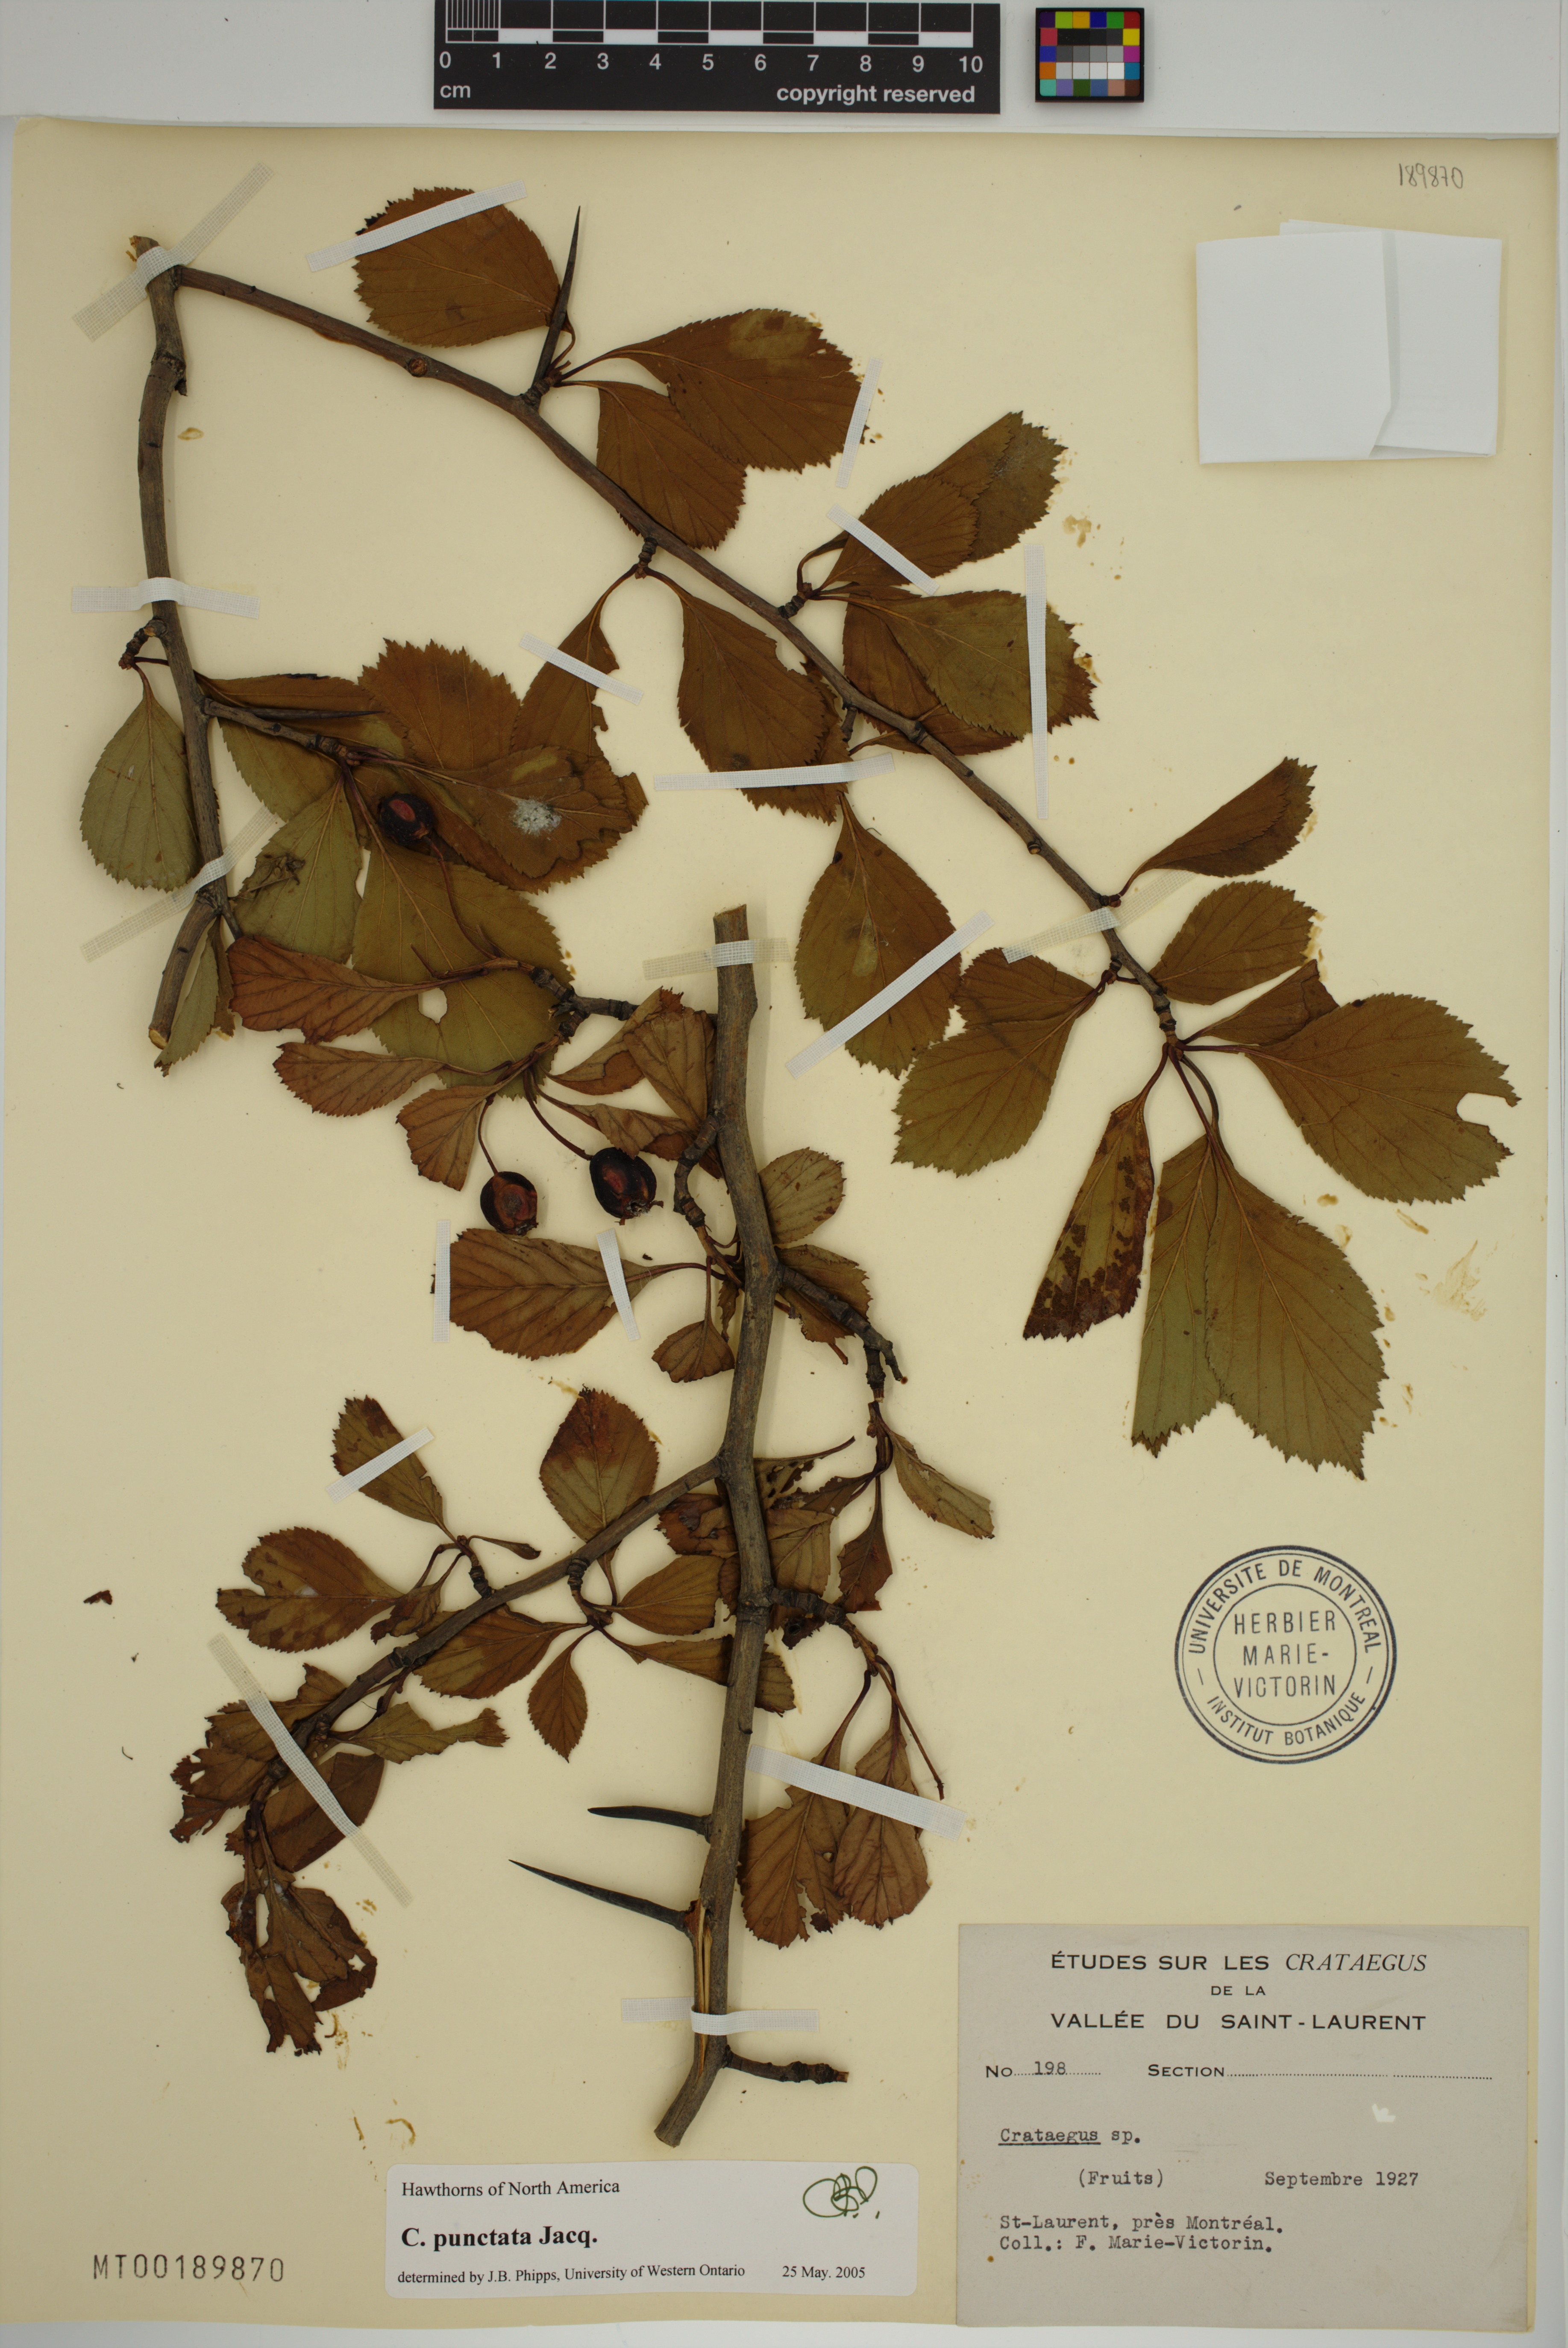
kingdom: Plantae
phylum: Tracheophyta
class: Magnoliopsida
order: Rosales
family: Rosaceae
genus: Crataegus
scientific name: Crataegus macracantha
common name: Large-thorn hawthorn
